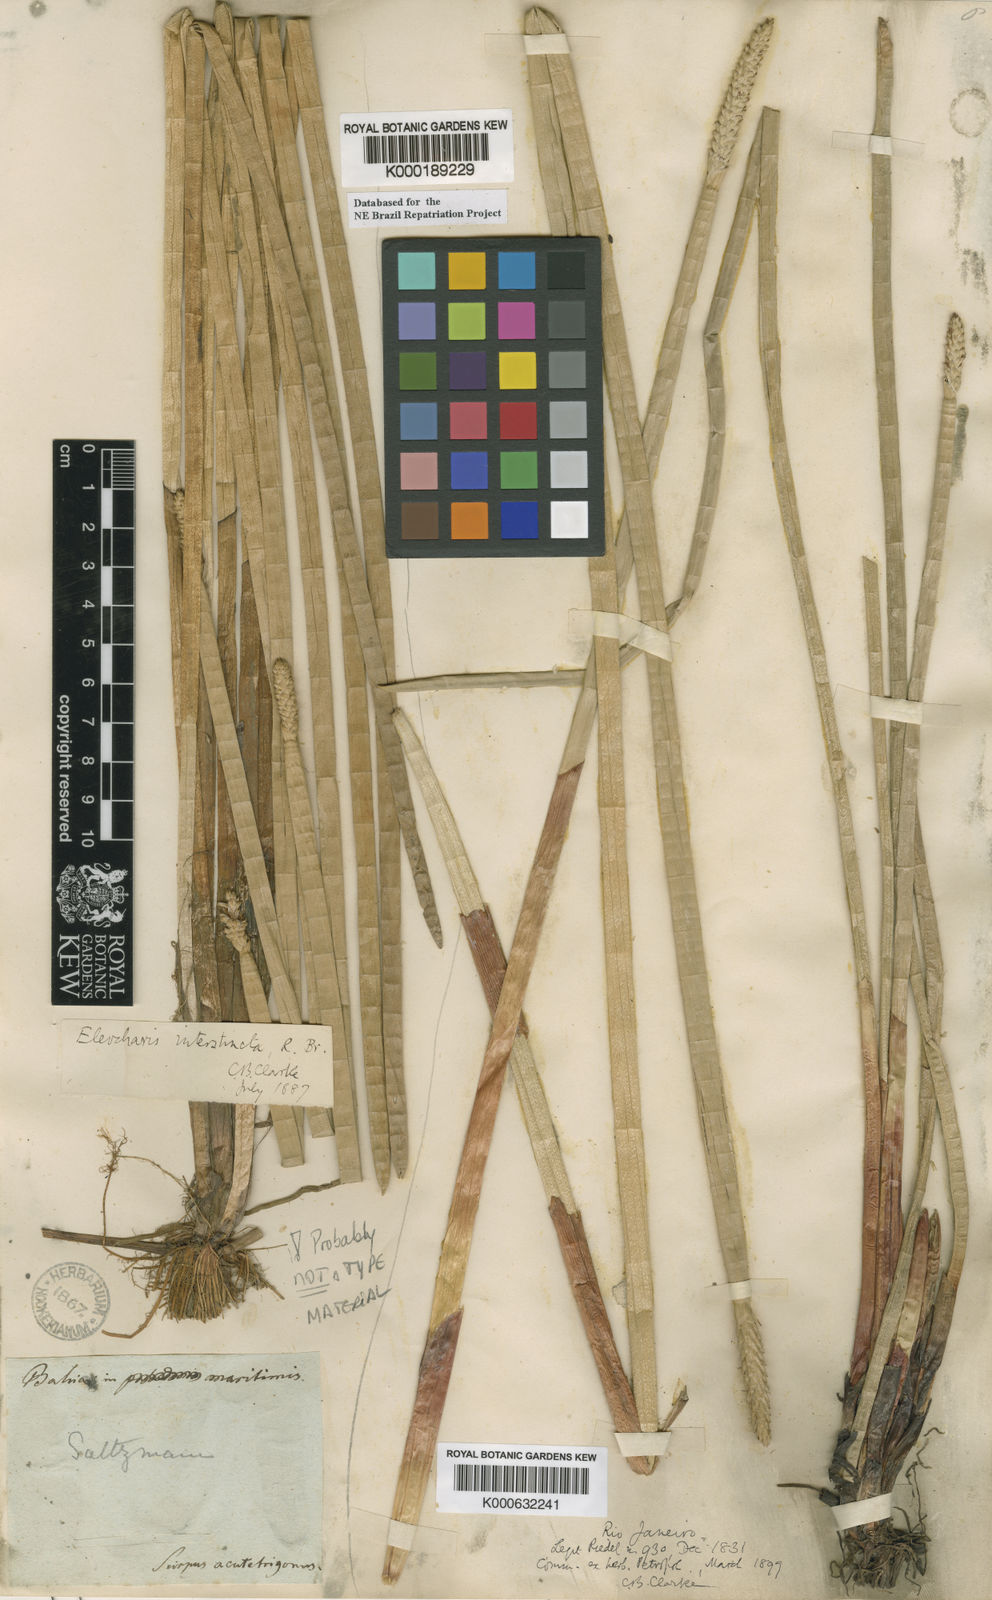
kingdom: Plantae
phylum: Tracheophyta
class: Liliopsida
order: Poales
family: Cyperaceae
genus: Eleocharis
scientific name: Eleocharis
